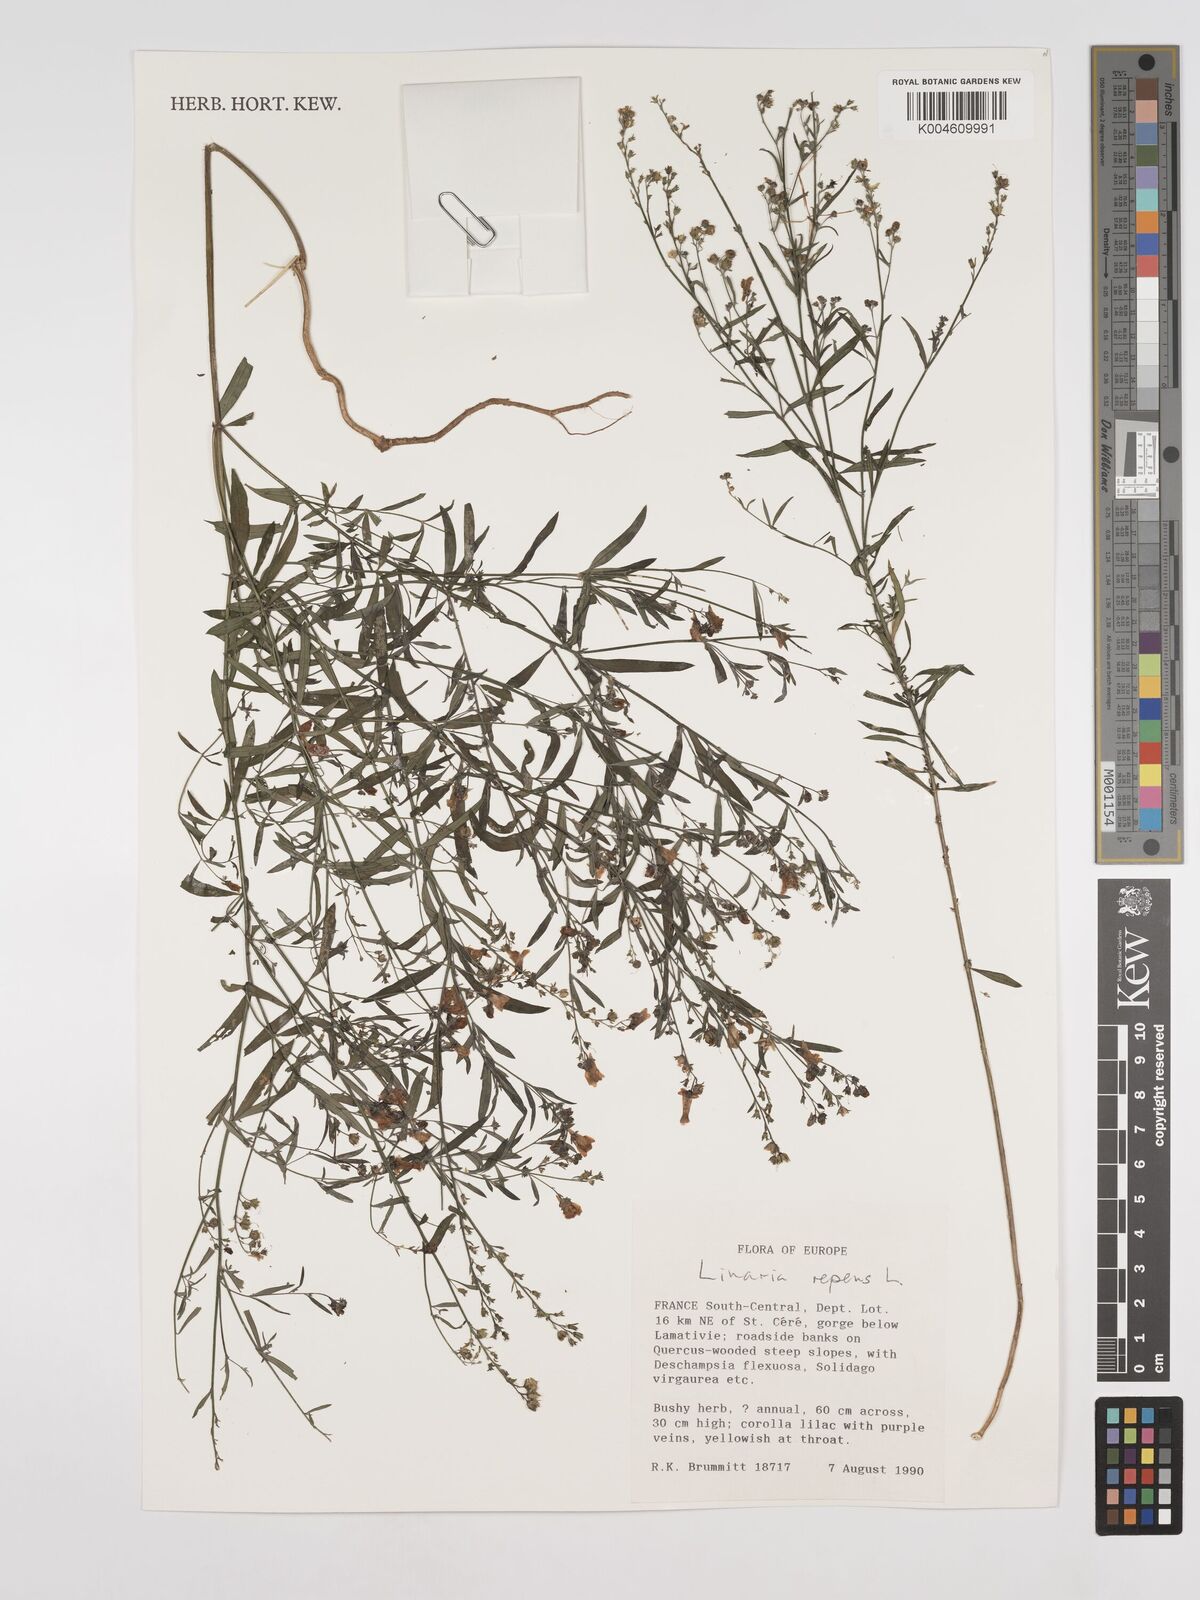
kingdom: Plantae
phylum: Tracheophyta
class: Magnoliopsida
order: Lamiales
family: Plantaginaceae
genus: Linaria
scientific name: Linaria repens
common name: Pale toadflax
